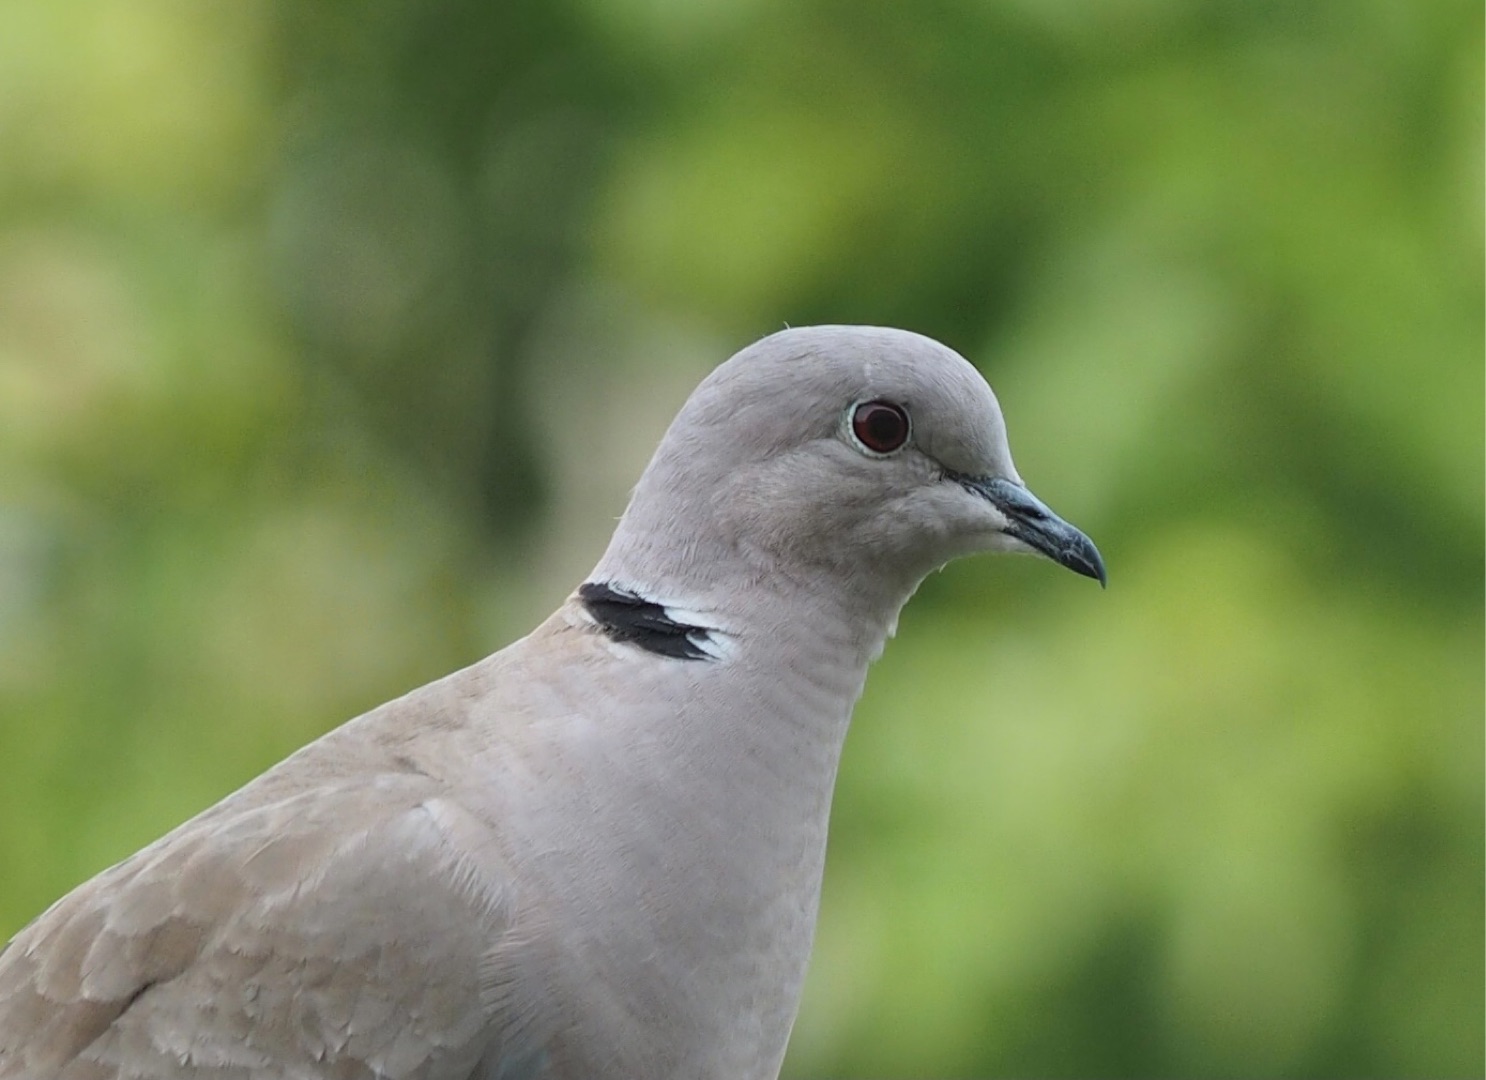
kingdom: Animalia
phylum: Chordata
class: Aves
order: Columbiformes
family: Columbidae
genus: Streptopelia
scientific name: Streptopelia decaocto
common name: Tyrkerdue
